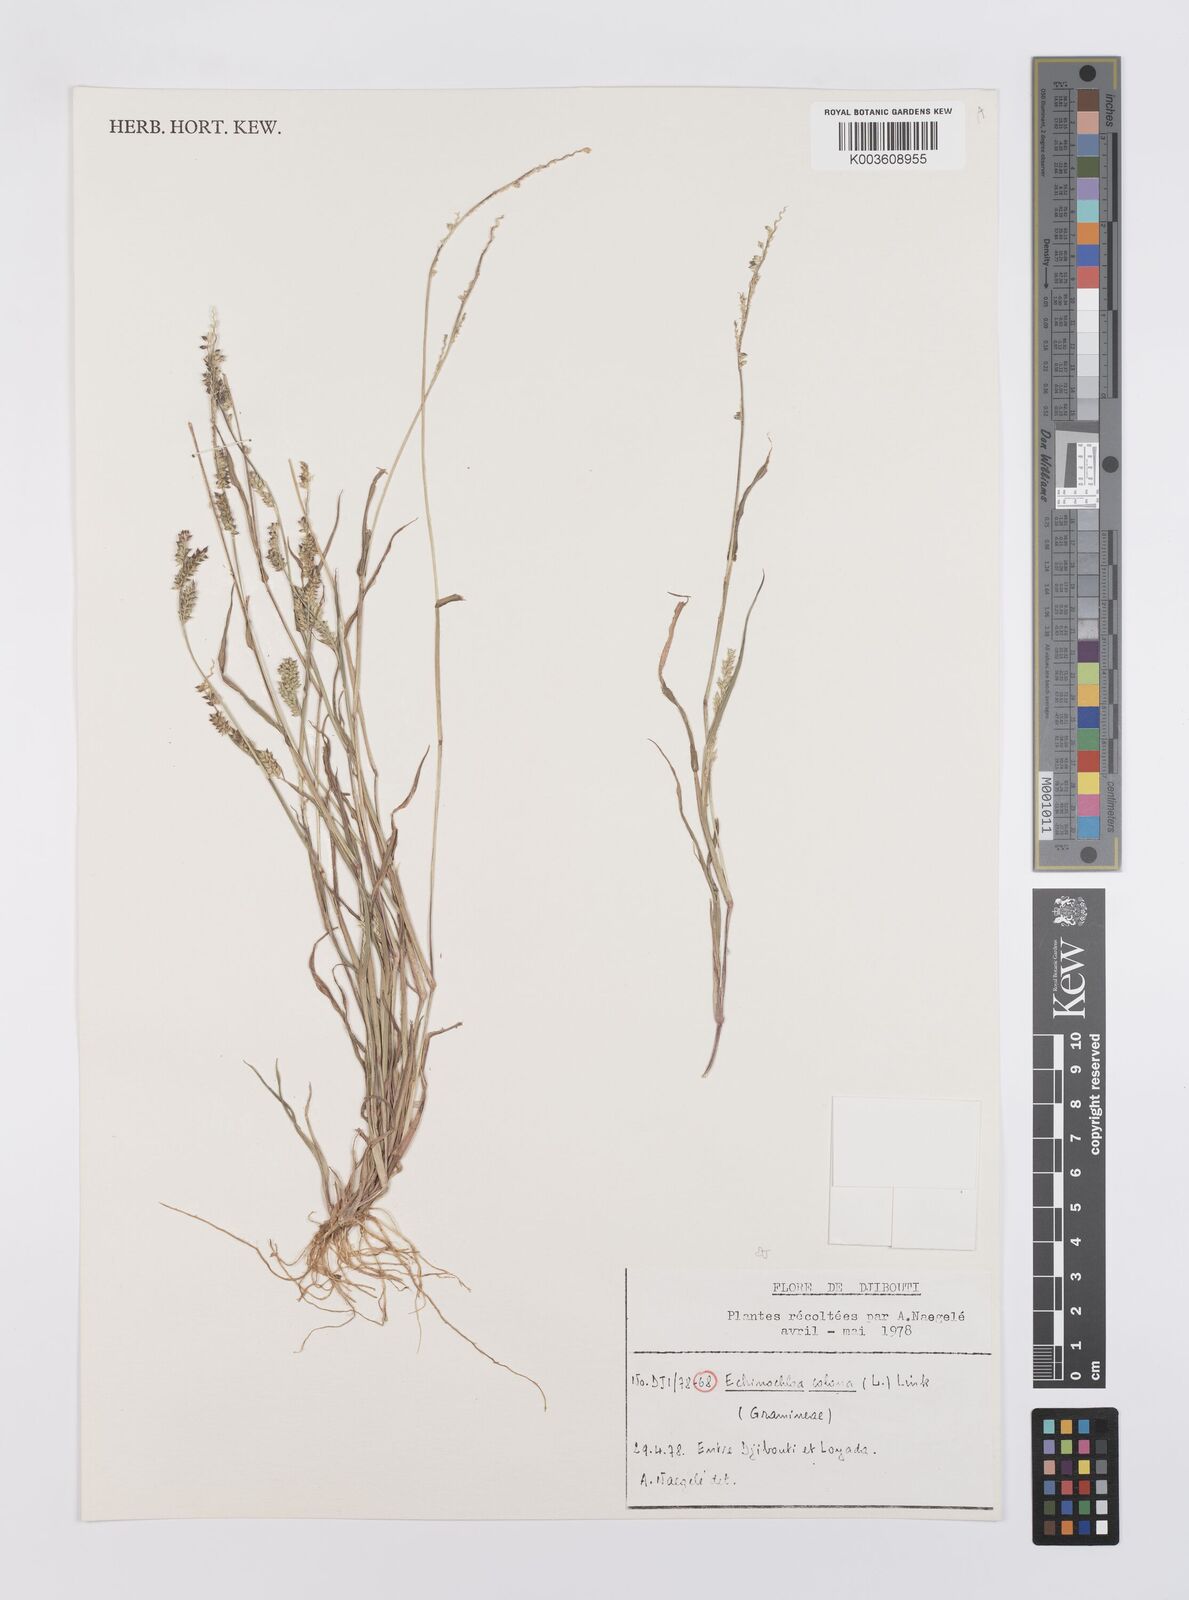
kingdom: Plantae
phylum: Tracheophyta
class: Liliopsida
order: Poales
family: Poaceae
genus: Echinochloa
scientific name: Echinochloa colonum
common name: Jungle rice
